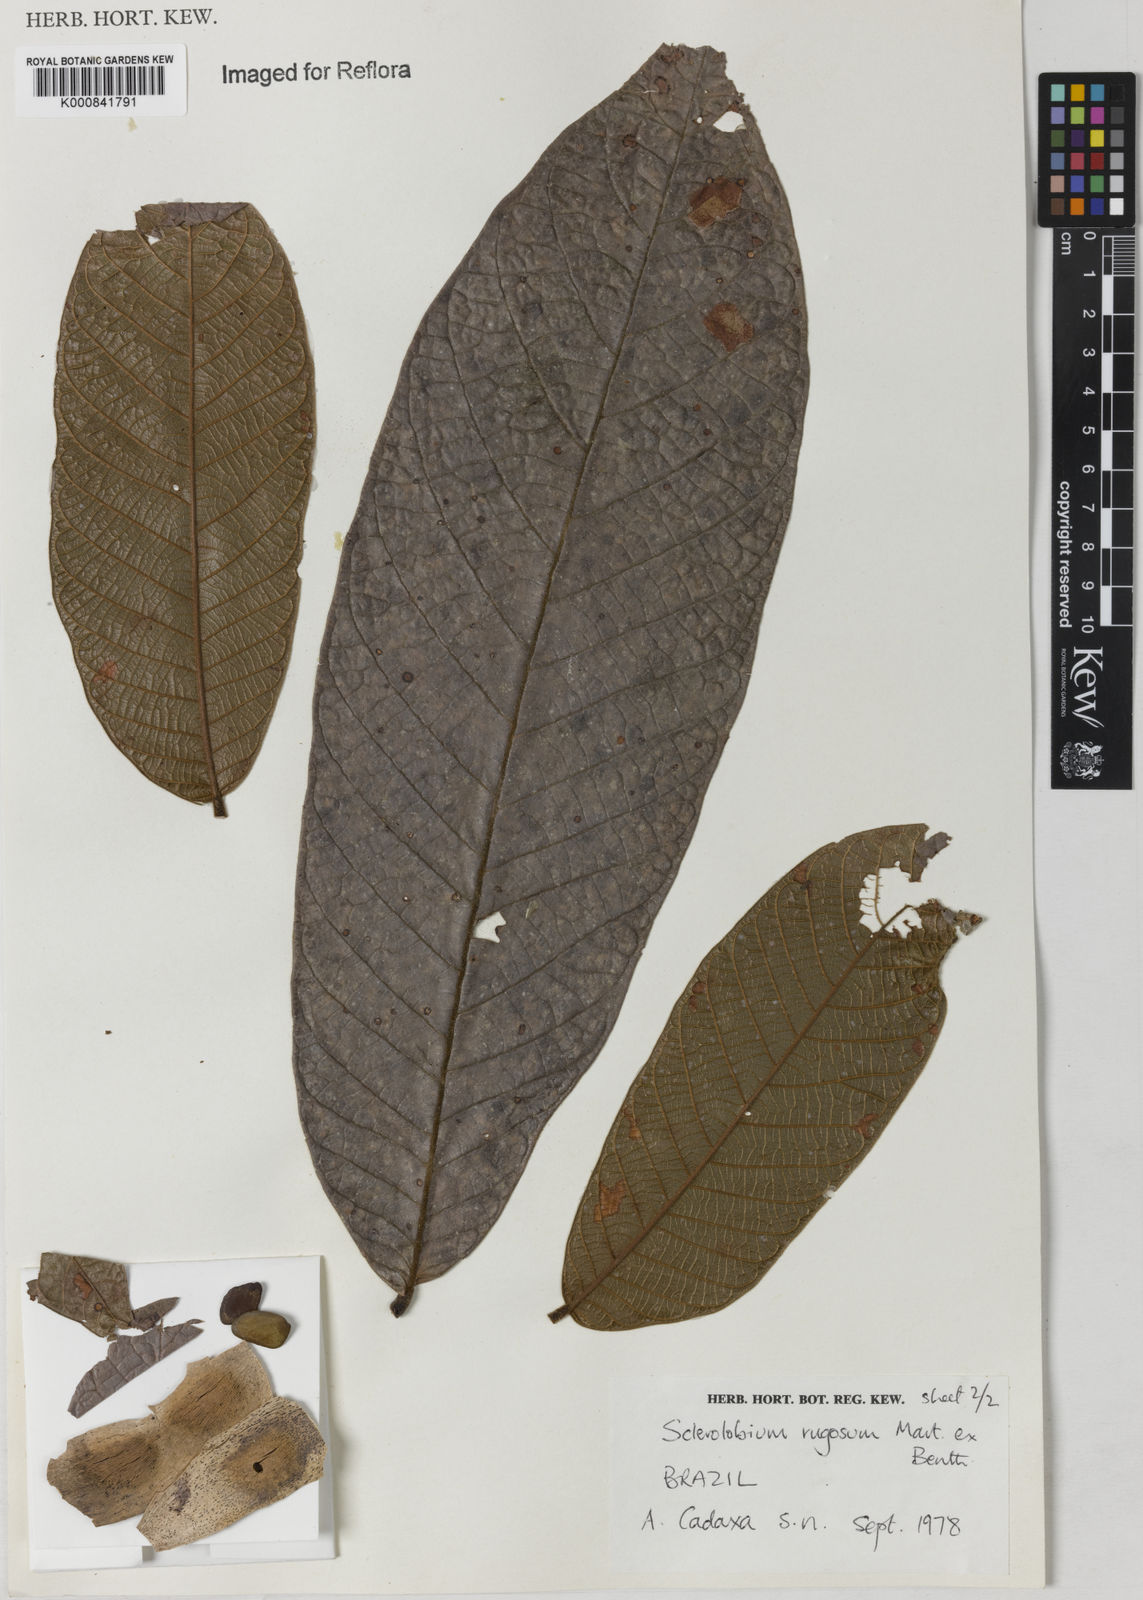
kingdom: Plantae
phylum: Tracheophyta
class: Magnoliopsida
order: Fabales
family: Fabaceae
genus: Tachigali
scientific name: Tachigali rugosa
